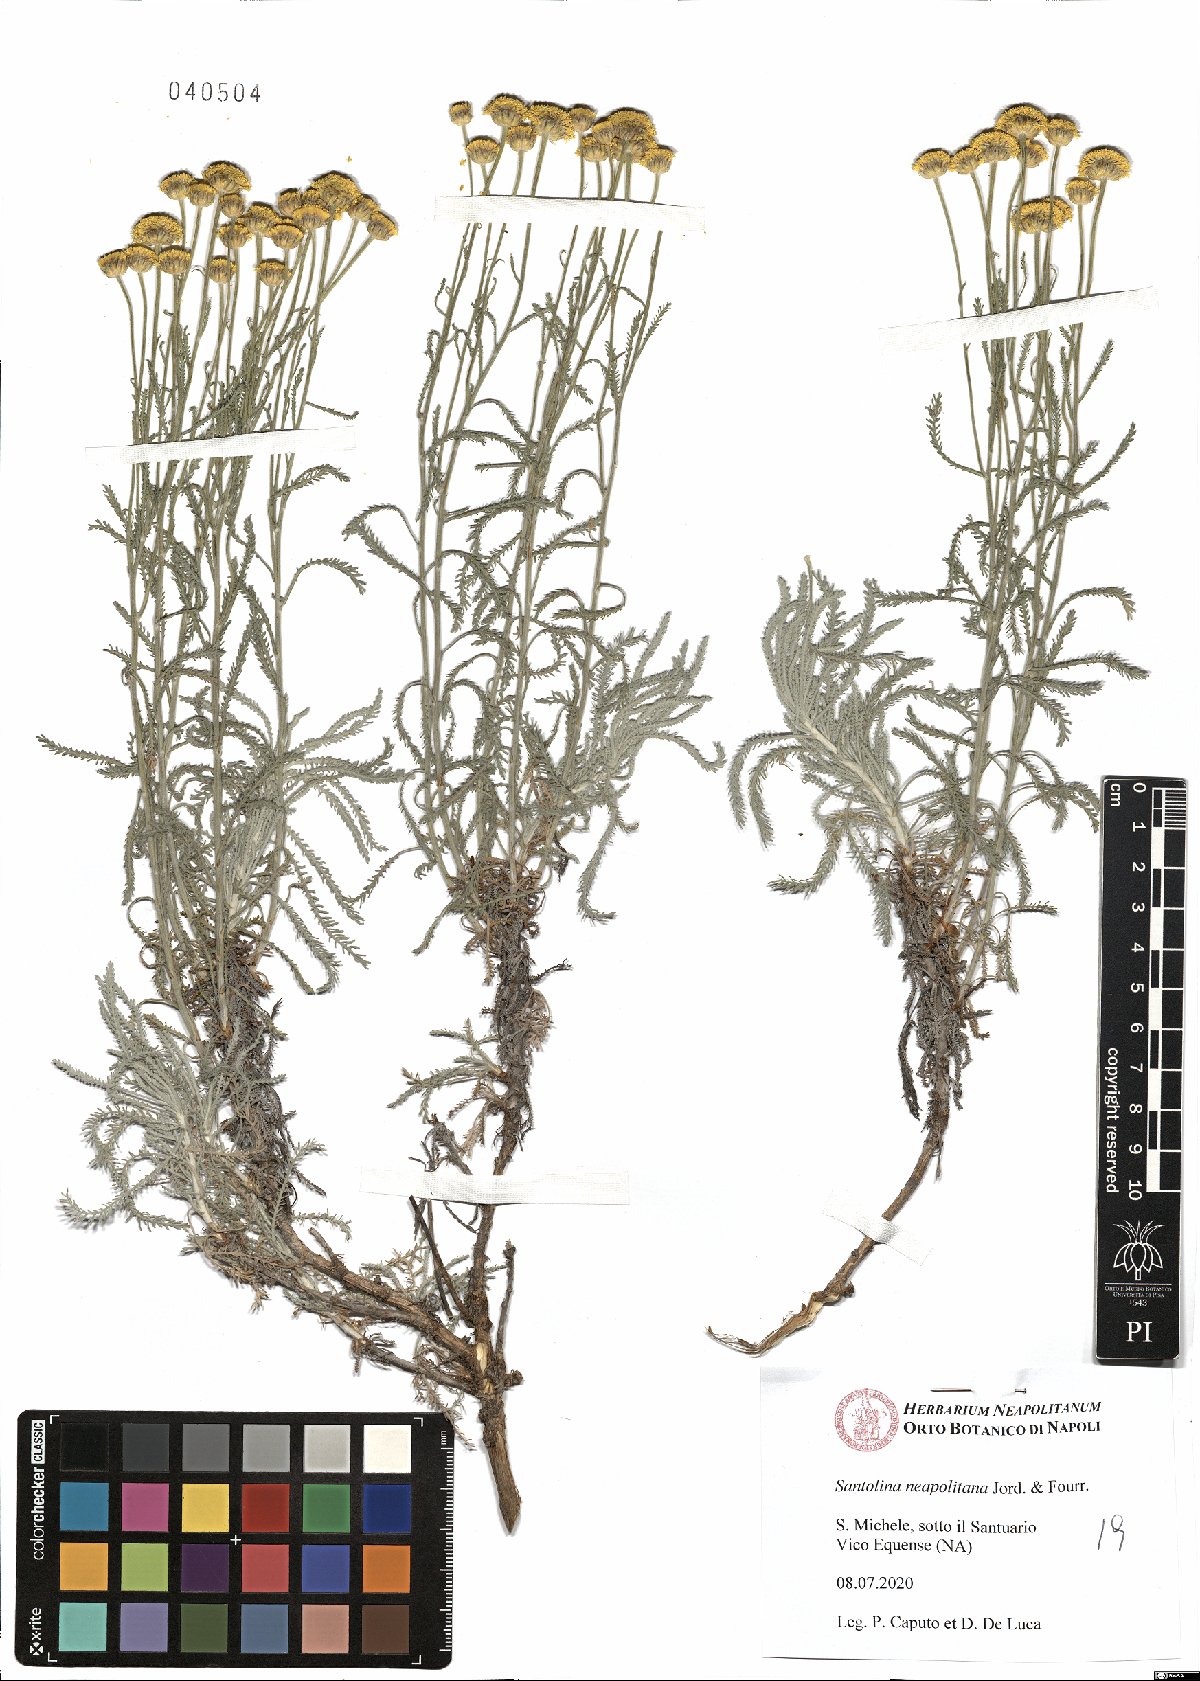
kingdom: Plantae
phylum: Tracheophyta
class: Magnoliopsida
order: Asterales
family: Asteraceae
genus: Santolina
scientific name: Santolina neapolitana
